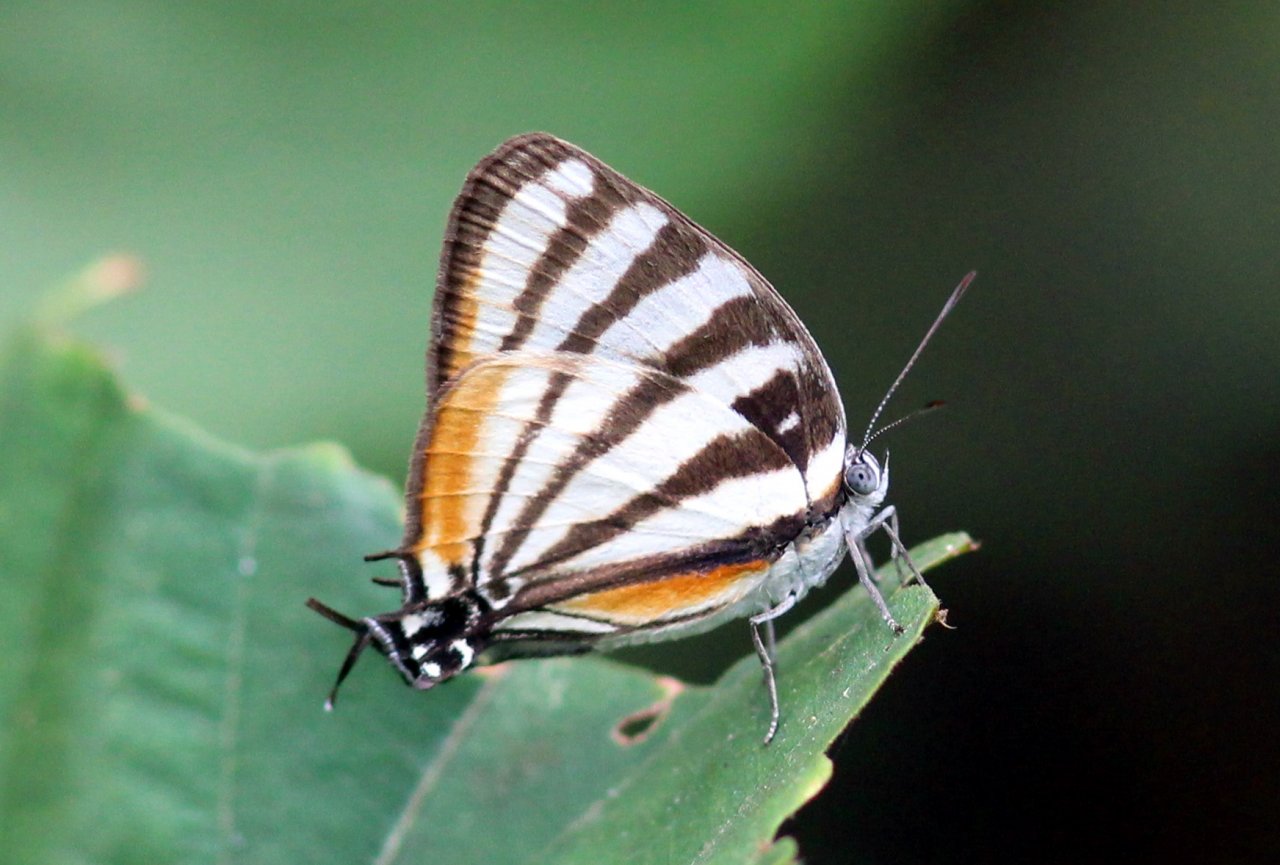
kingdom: Animalia
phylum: Arthropoda
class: Insecta
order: Lepidoptera
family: Lycaenidae
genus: Arawacus
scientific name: Arawacus togarna
